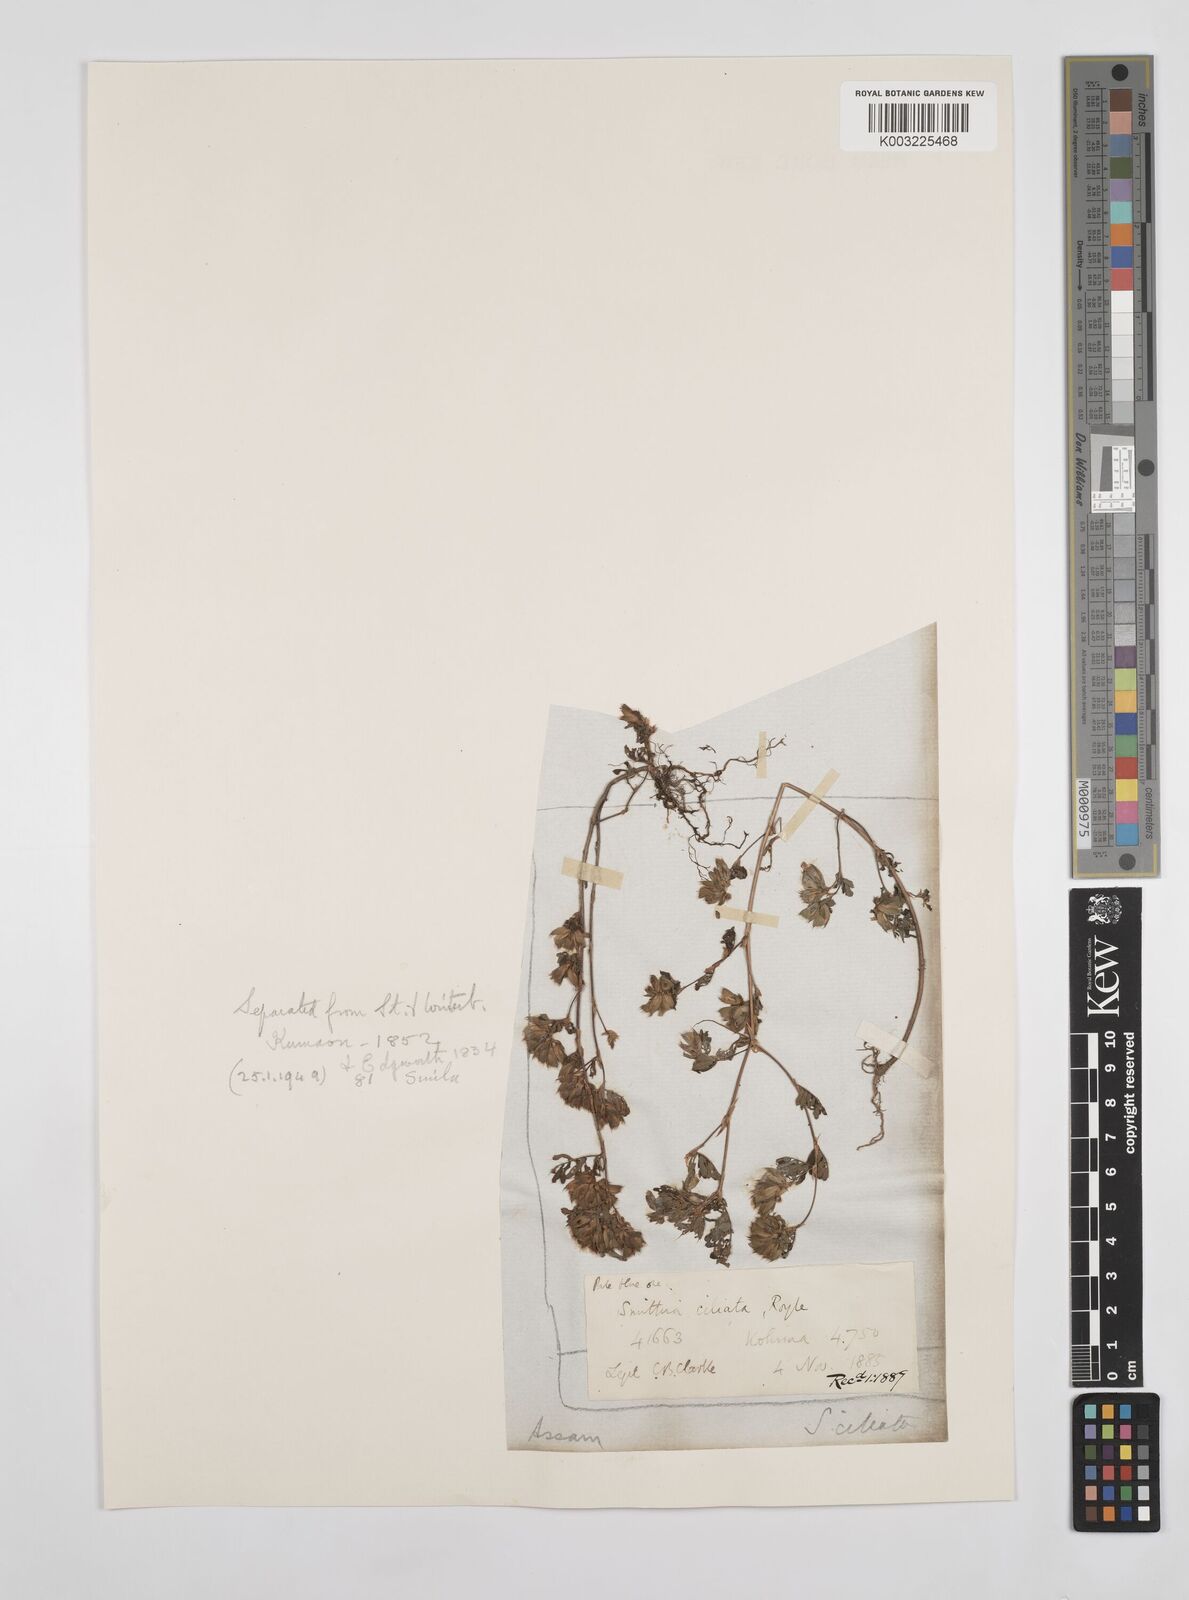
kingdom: Plantae
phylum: Tracheophyta
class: Magnoliopsida
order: Fabales
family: Fabaceae
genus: Smithia
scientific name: Smithia ciliata
